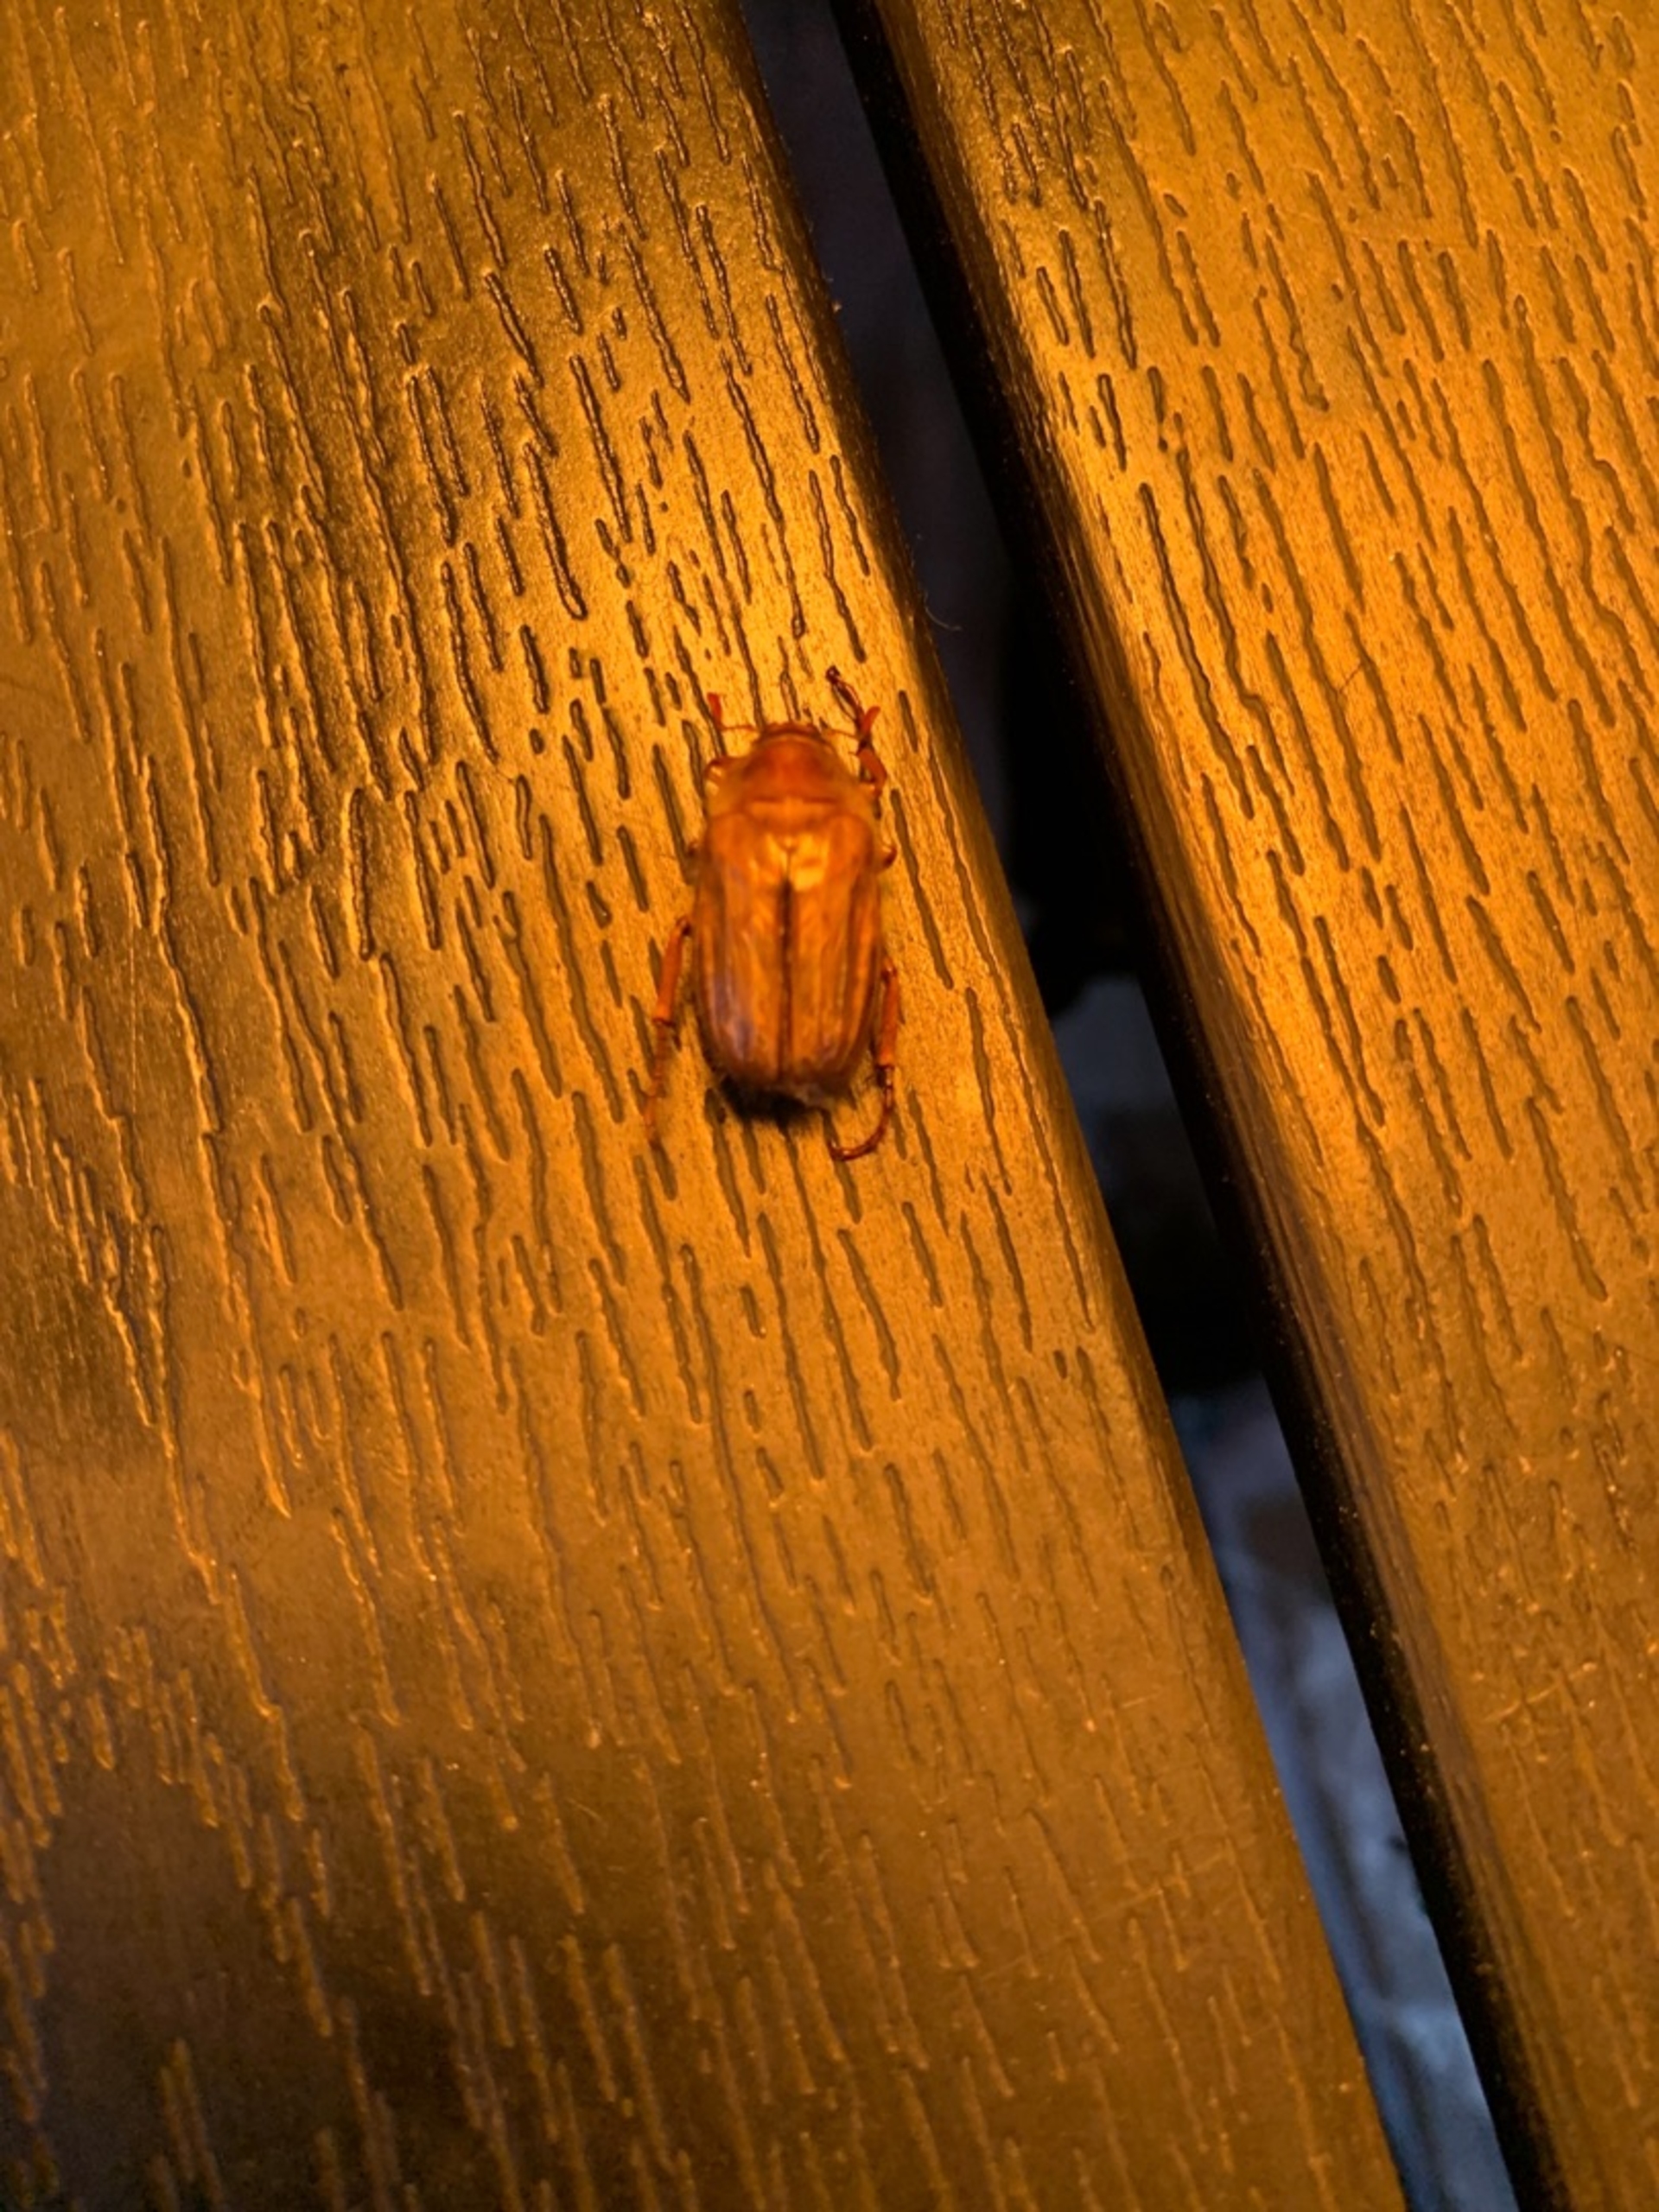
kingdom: Animalia
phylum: Arthropoda
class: Insecta
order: Coleoptera
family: Scarabaeidae
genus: Amphimallon
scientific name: Amphimallon solstitiale
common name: Sankthansoldenborre
